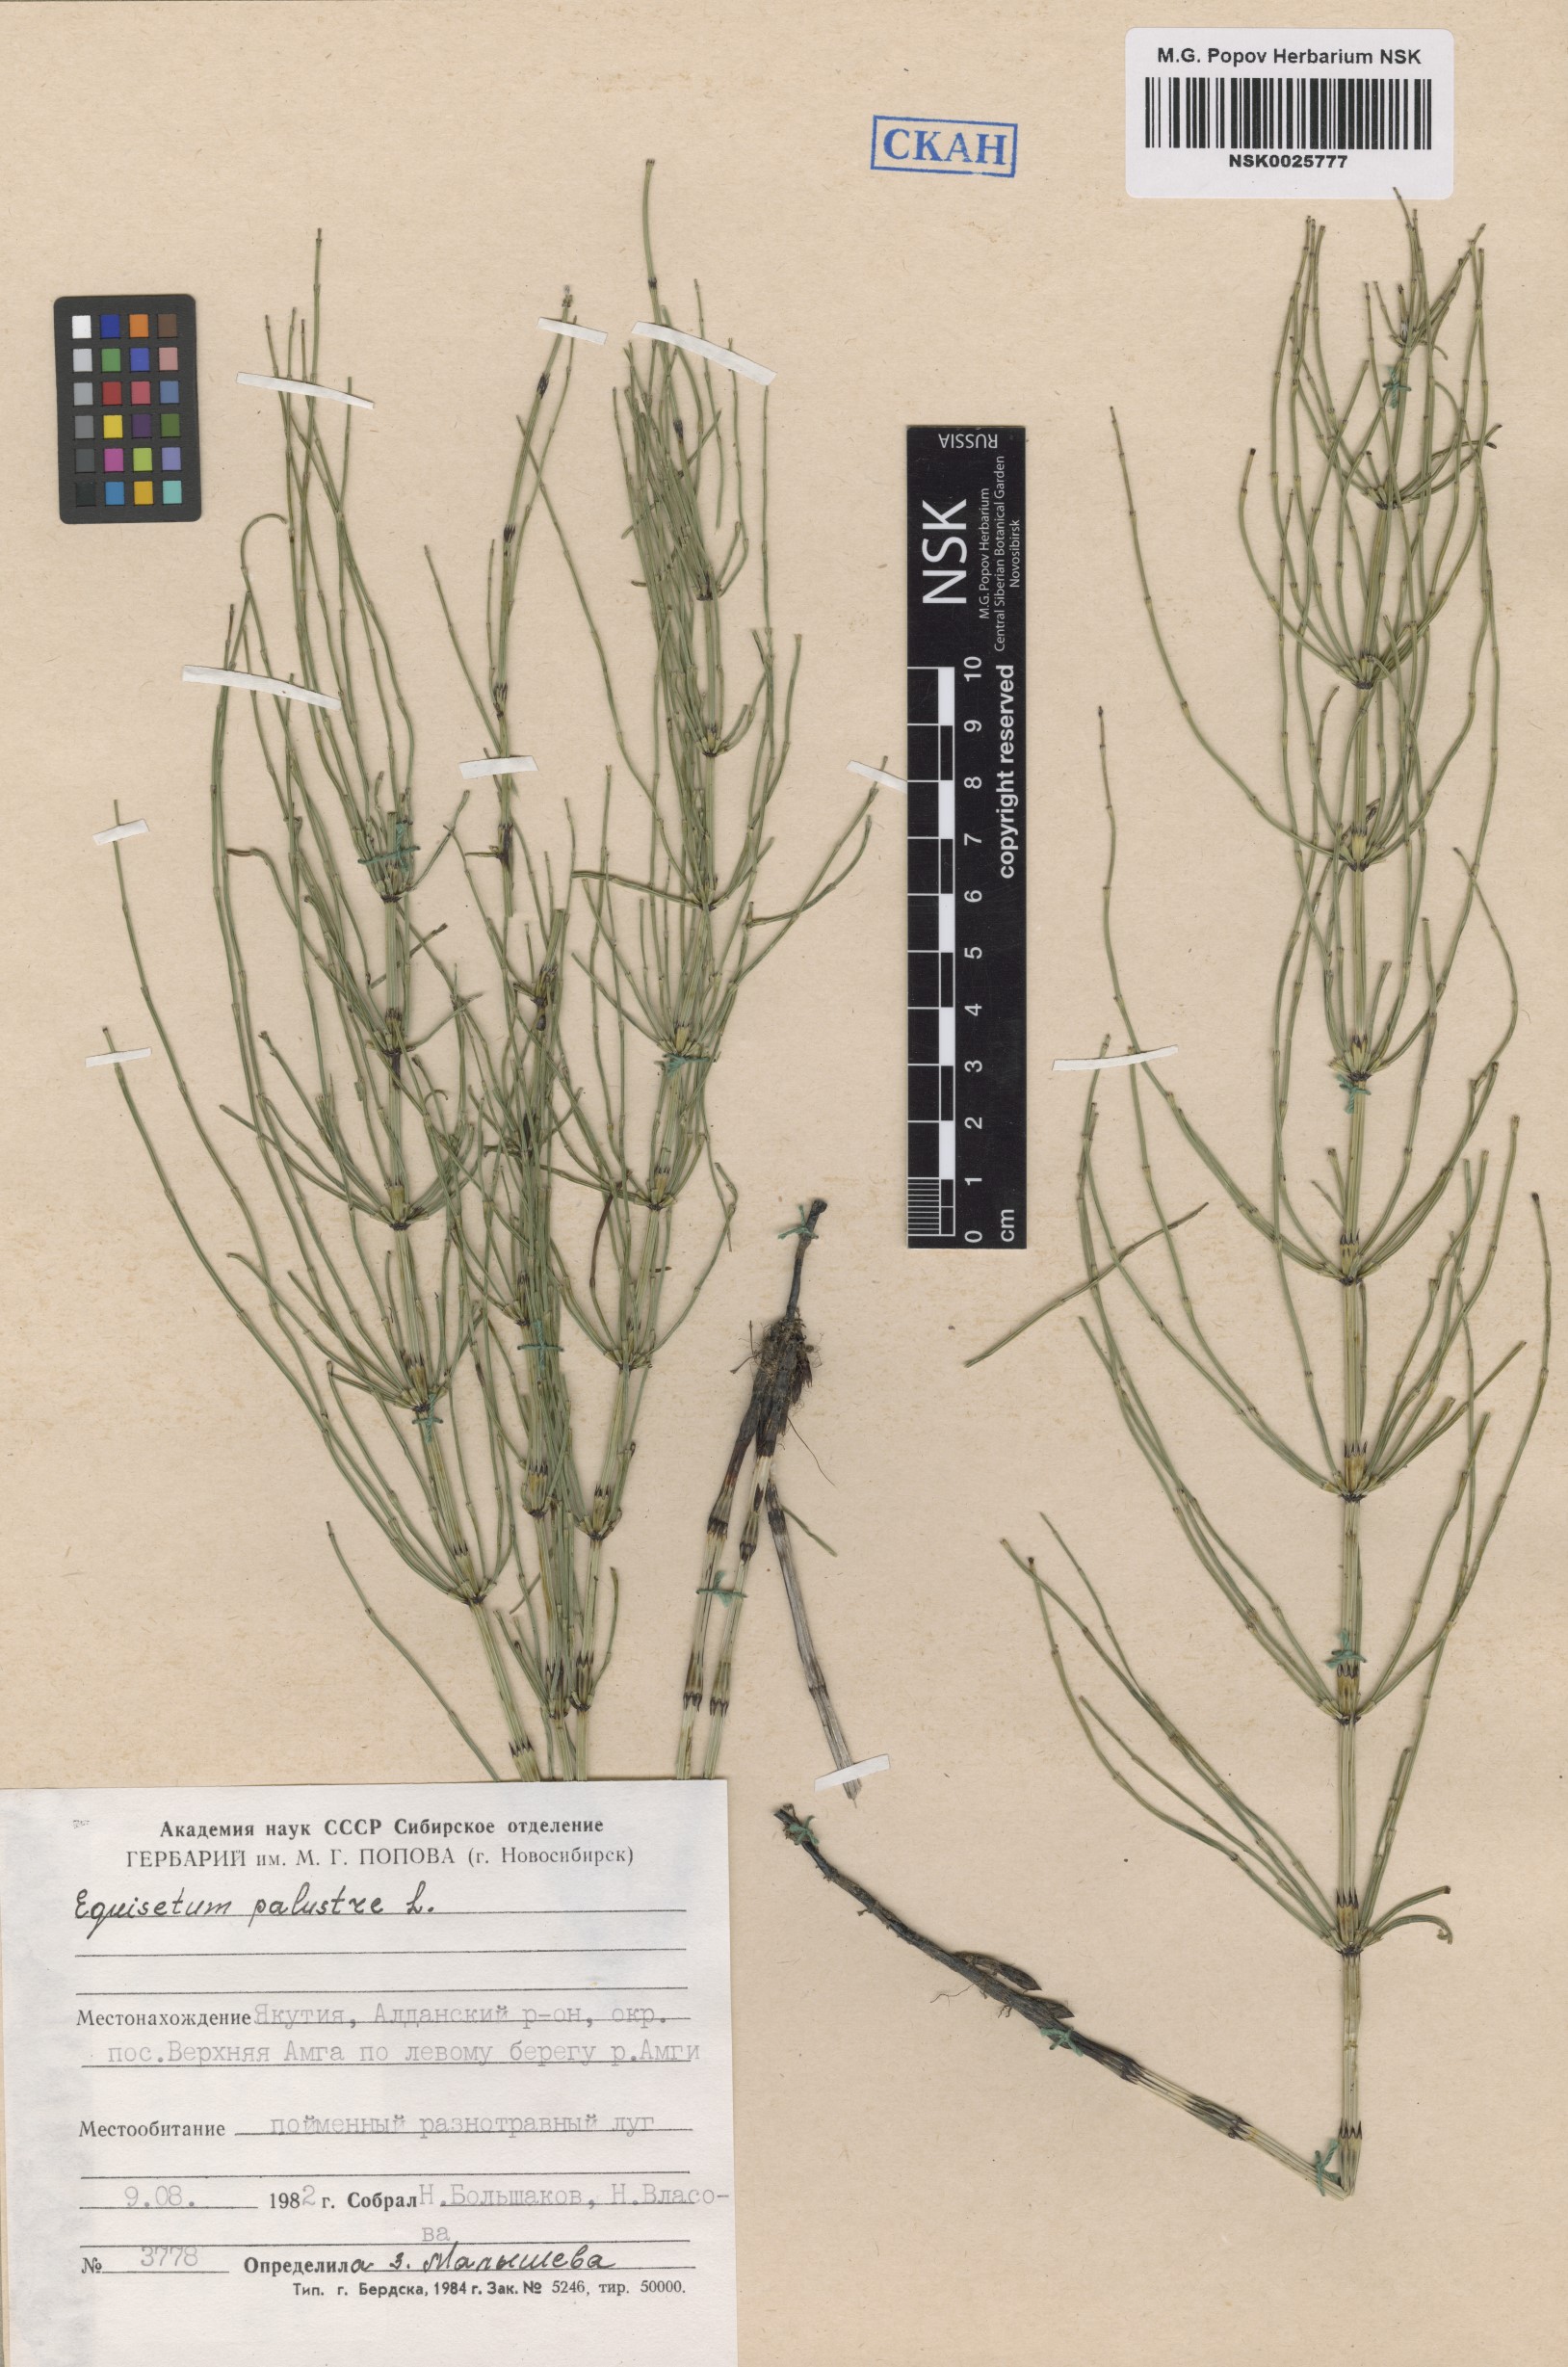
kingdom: Plantae
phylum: Tracheophyta
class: Polypodiopsida
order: Equisetales
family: Equisetaceae
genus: Equisetum
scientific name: Equisetum palustre
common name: Marsh horsetail
